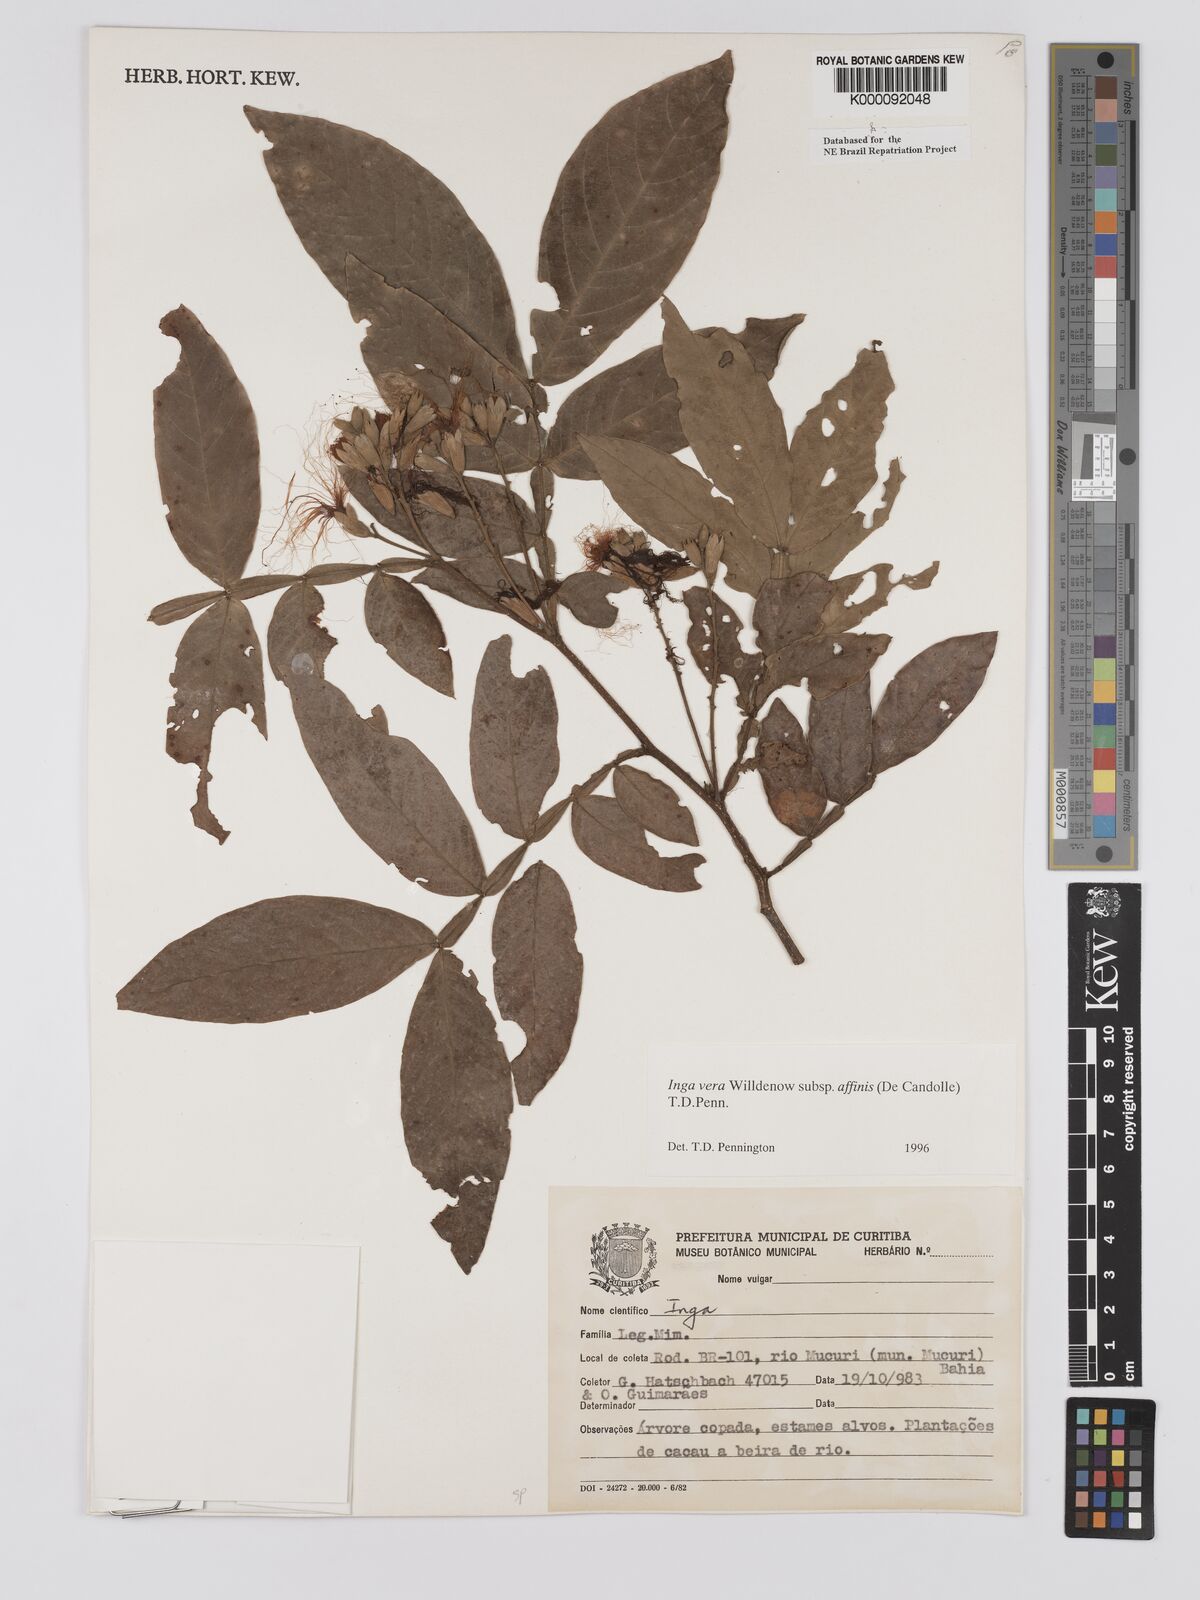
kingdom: Plantae
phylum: Tracheophyta
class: Magnoliopsida
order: Fabales
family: Fabaceae
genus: Inga
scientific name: Inga affinis
